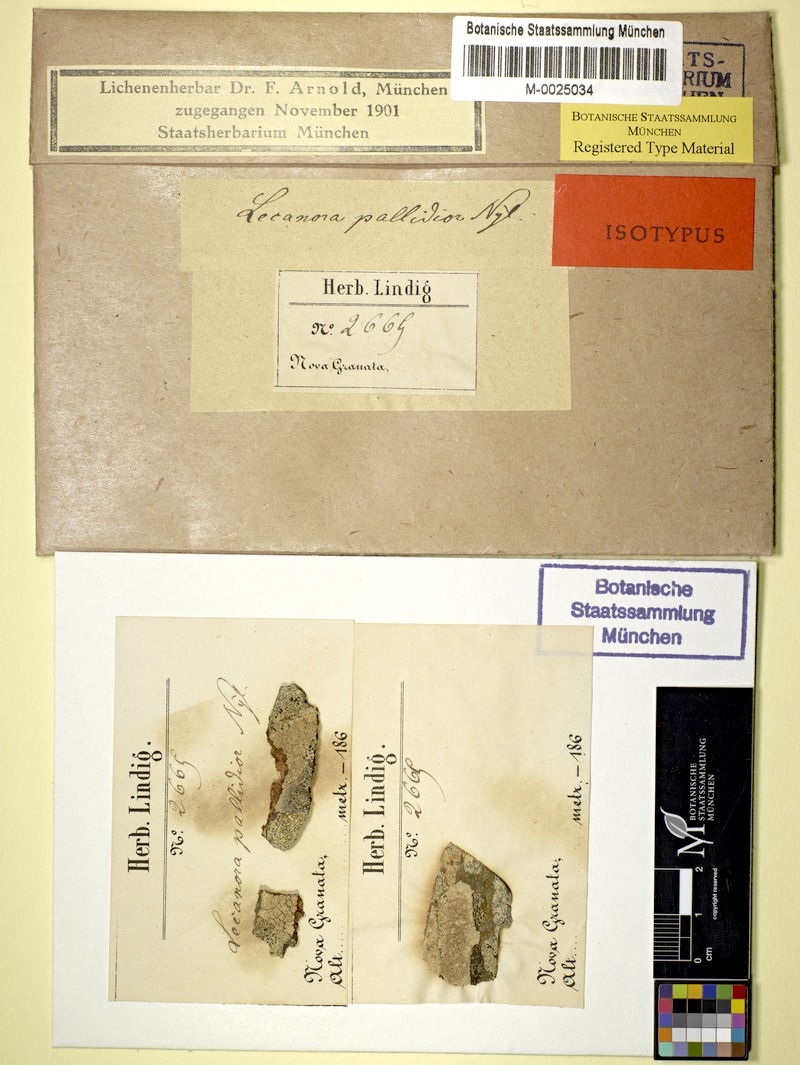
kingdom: Fungi
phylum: Ascomycota
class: Lecanoromycetes
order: Umbilicariales
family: Ophioparmaceae
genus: Ophioparma
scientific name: Ophioparma ventosa
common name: Blood-spot
